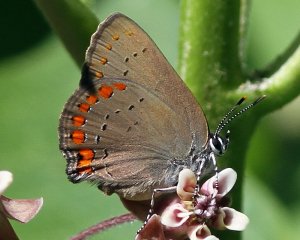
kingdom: Animalia
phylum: Arthropoda
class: Insecta
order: Lepidoptera
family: Lycaenidae
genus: Harkenclenus
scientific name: Harkenclenus titus
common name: Coral Hairstreak
